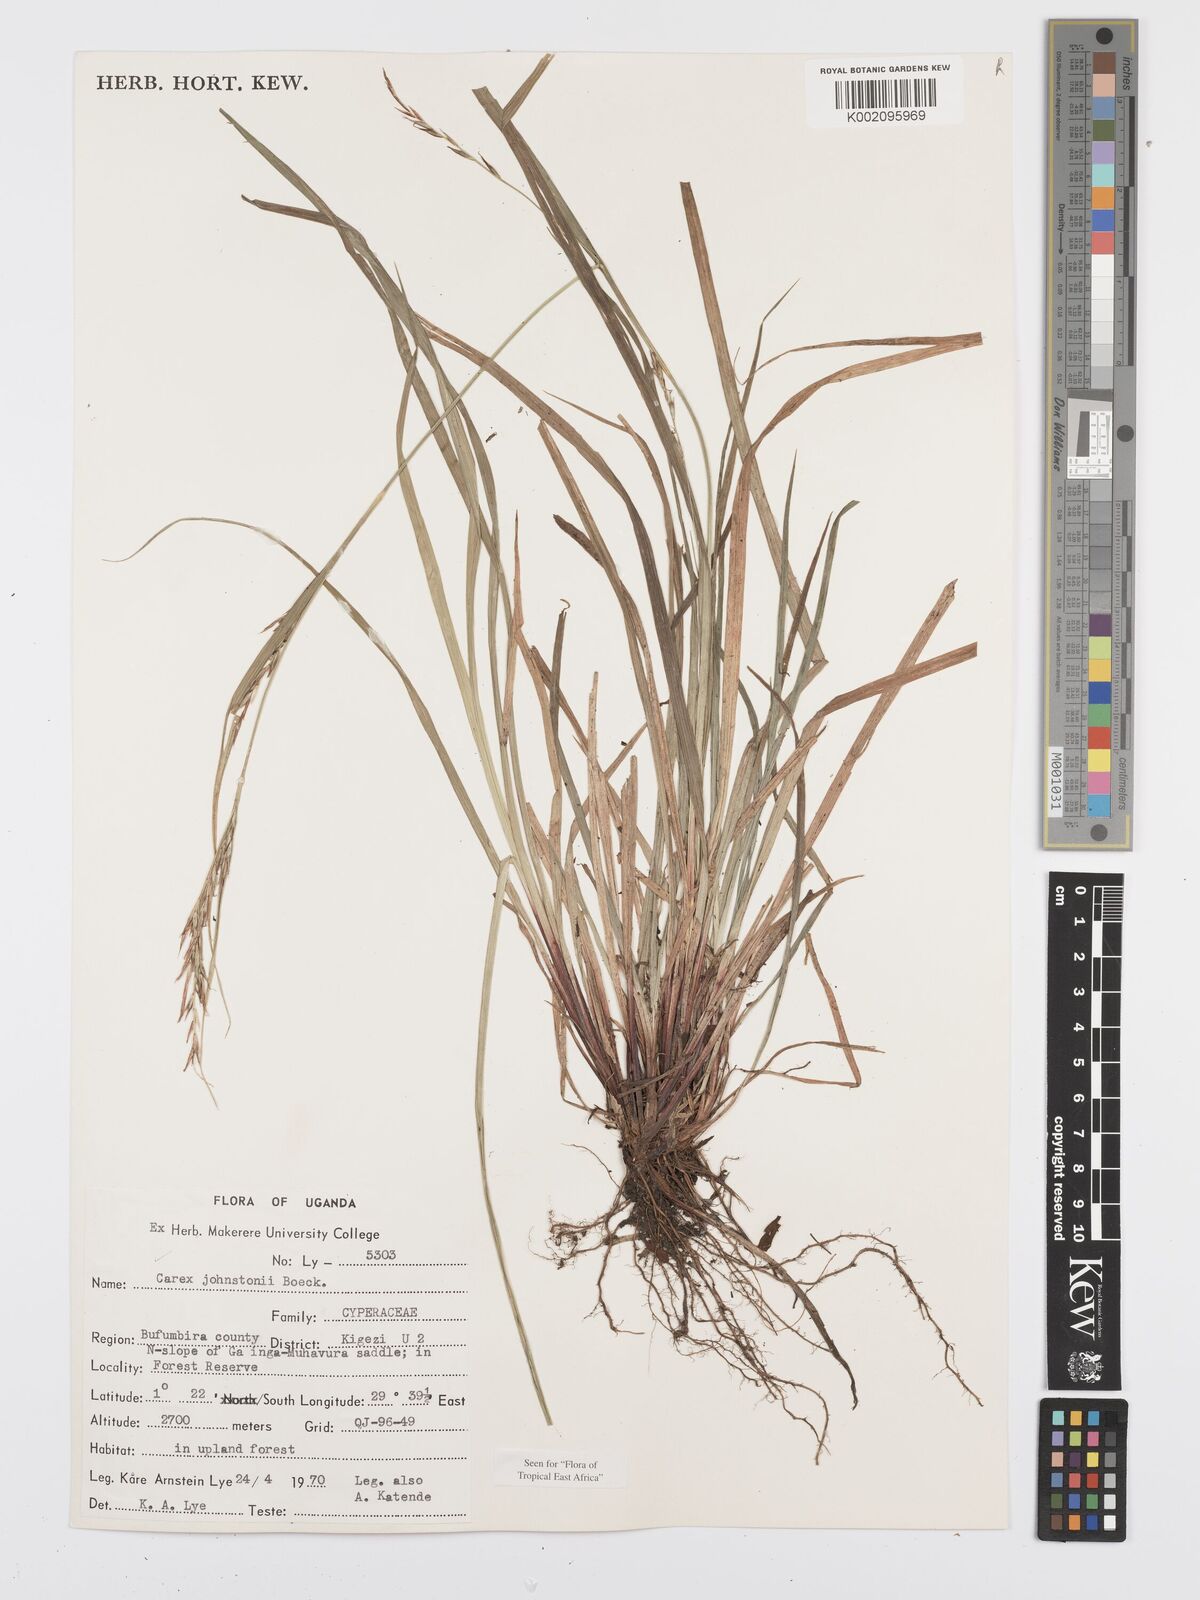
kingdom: Plantae
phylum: Tracheophyta
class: Liliopsida
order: Poales
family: Cyperaceae
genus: Carex
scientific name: Carex johnstonii
